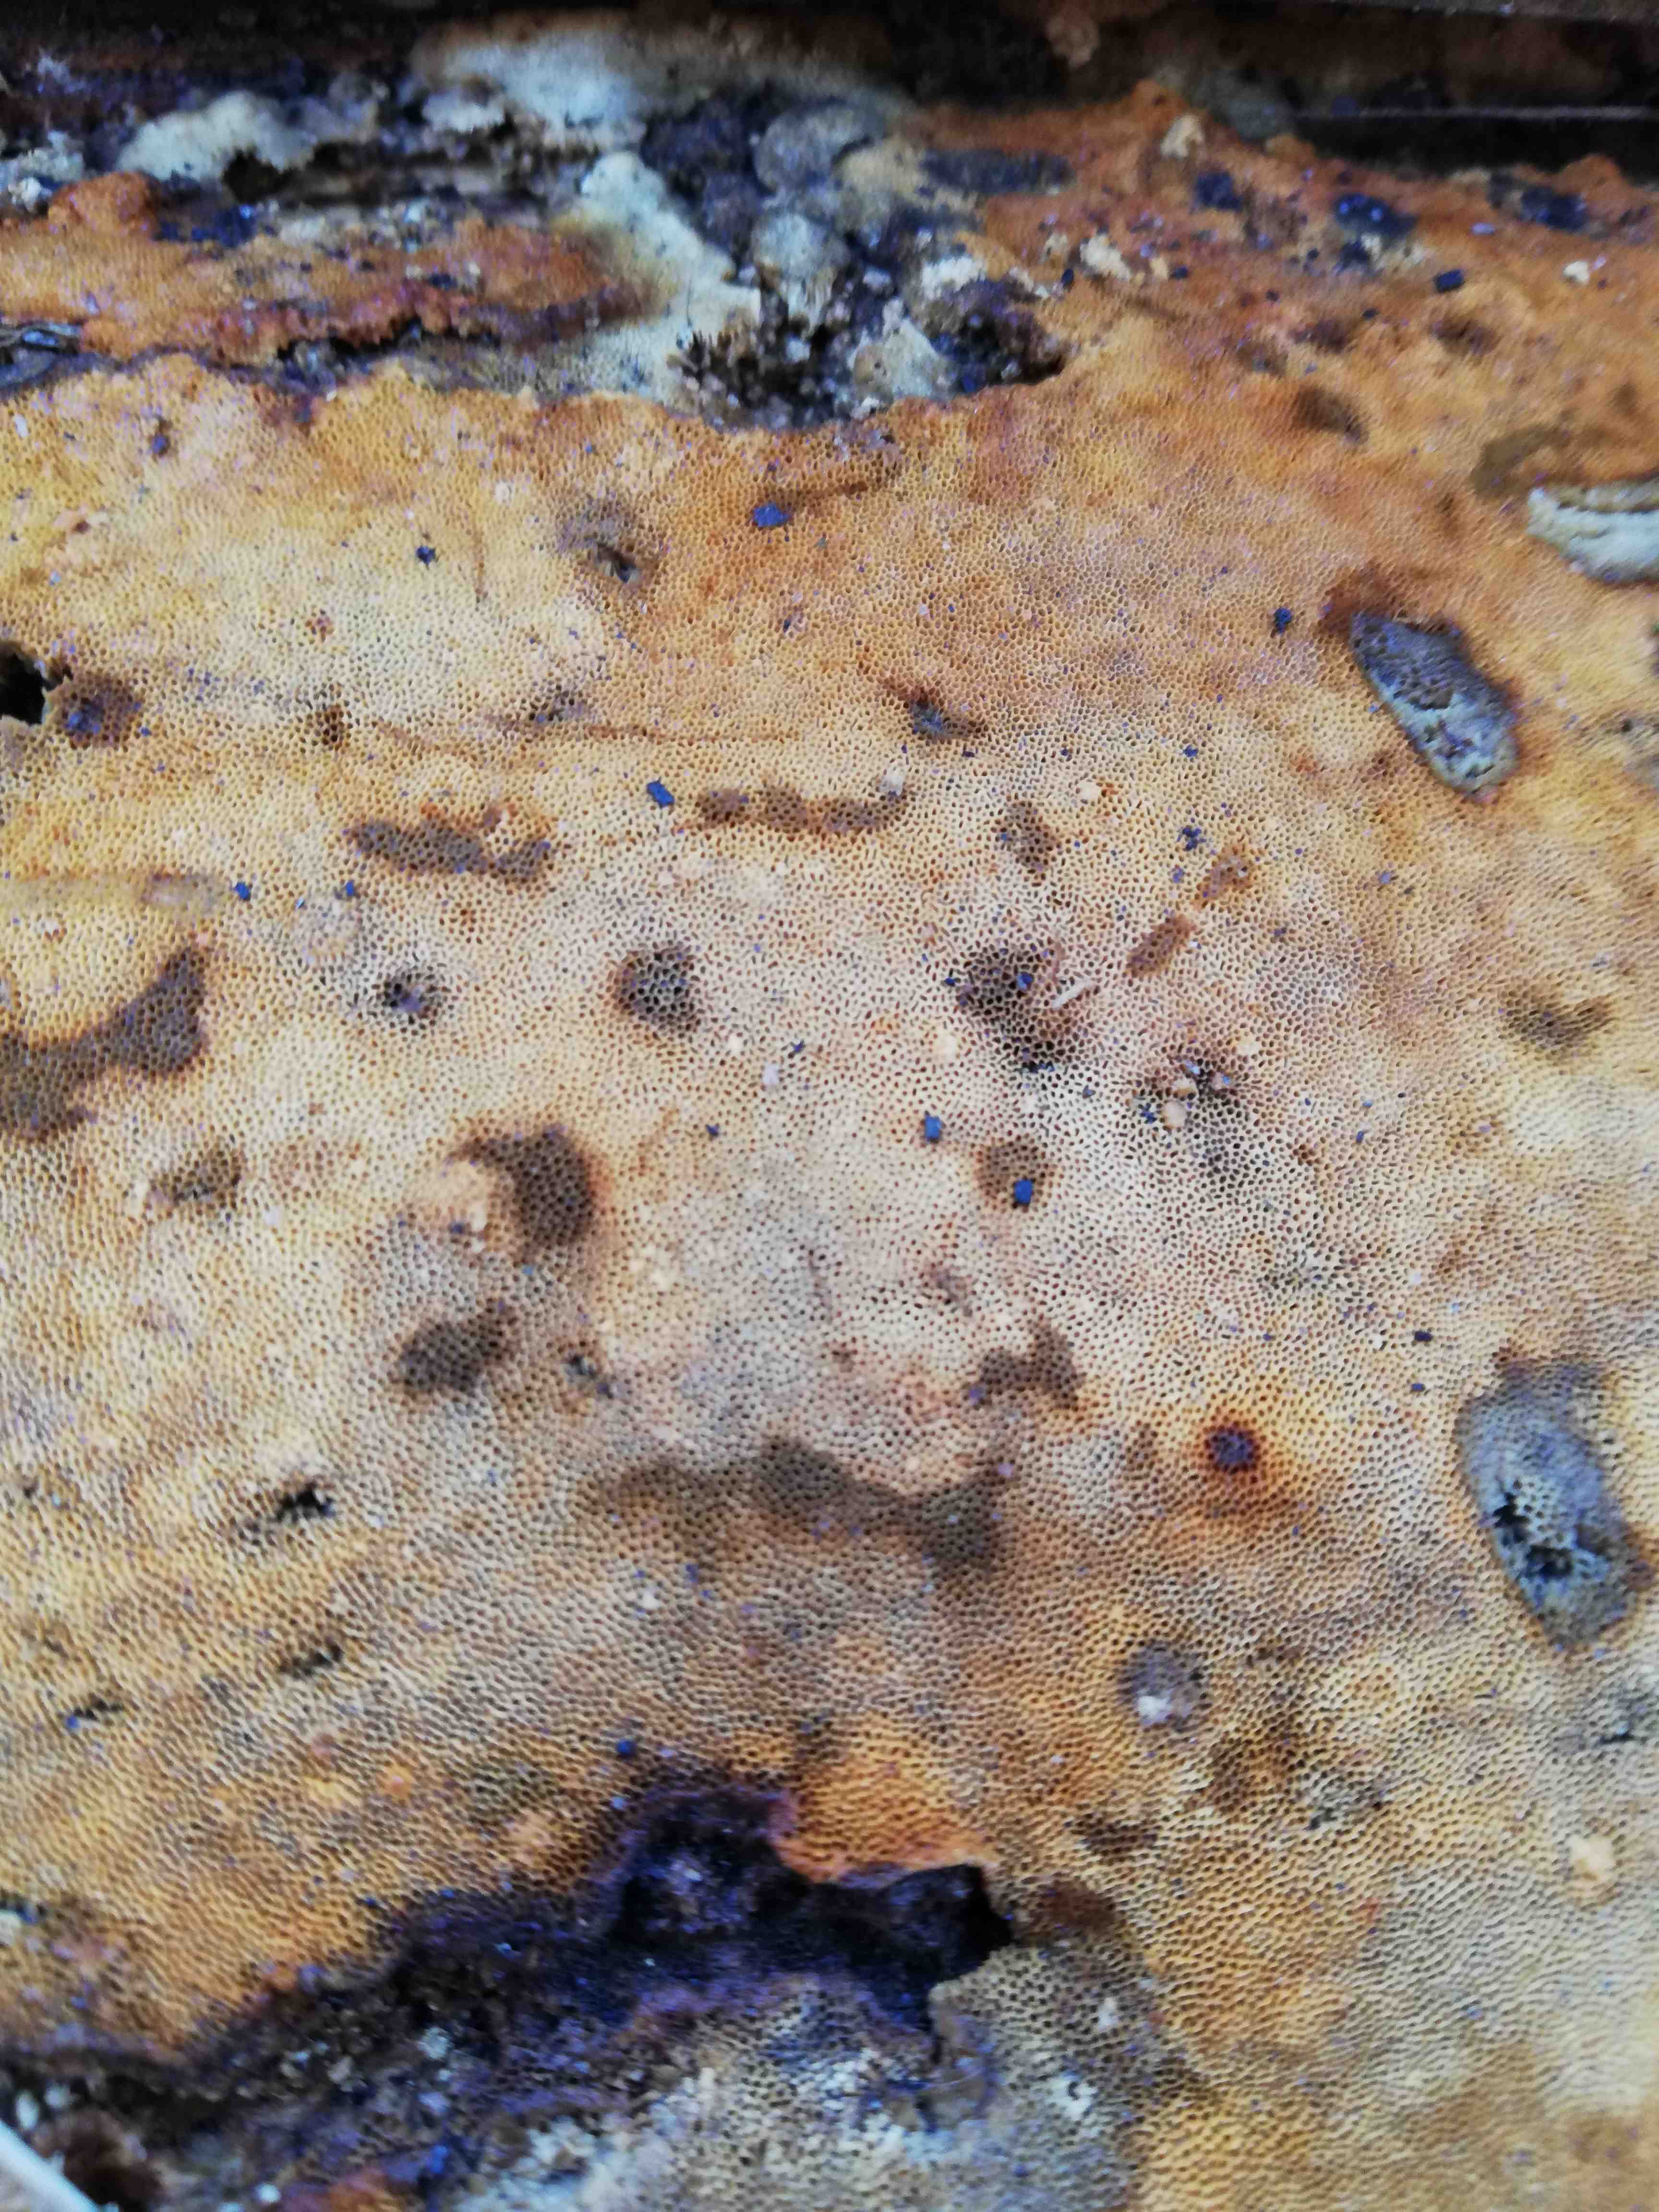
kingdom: Fungi
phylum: Basidiomycota
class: Agaricomycetes
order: Polyporales
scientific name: Polyporales
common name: poresvampordenen
